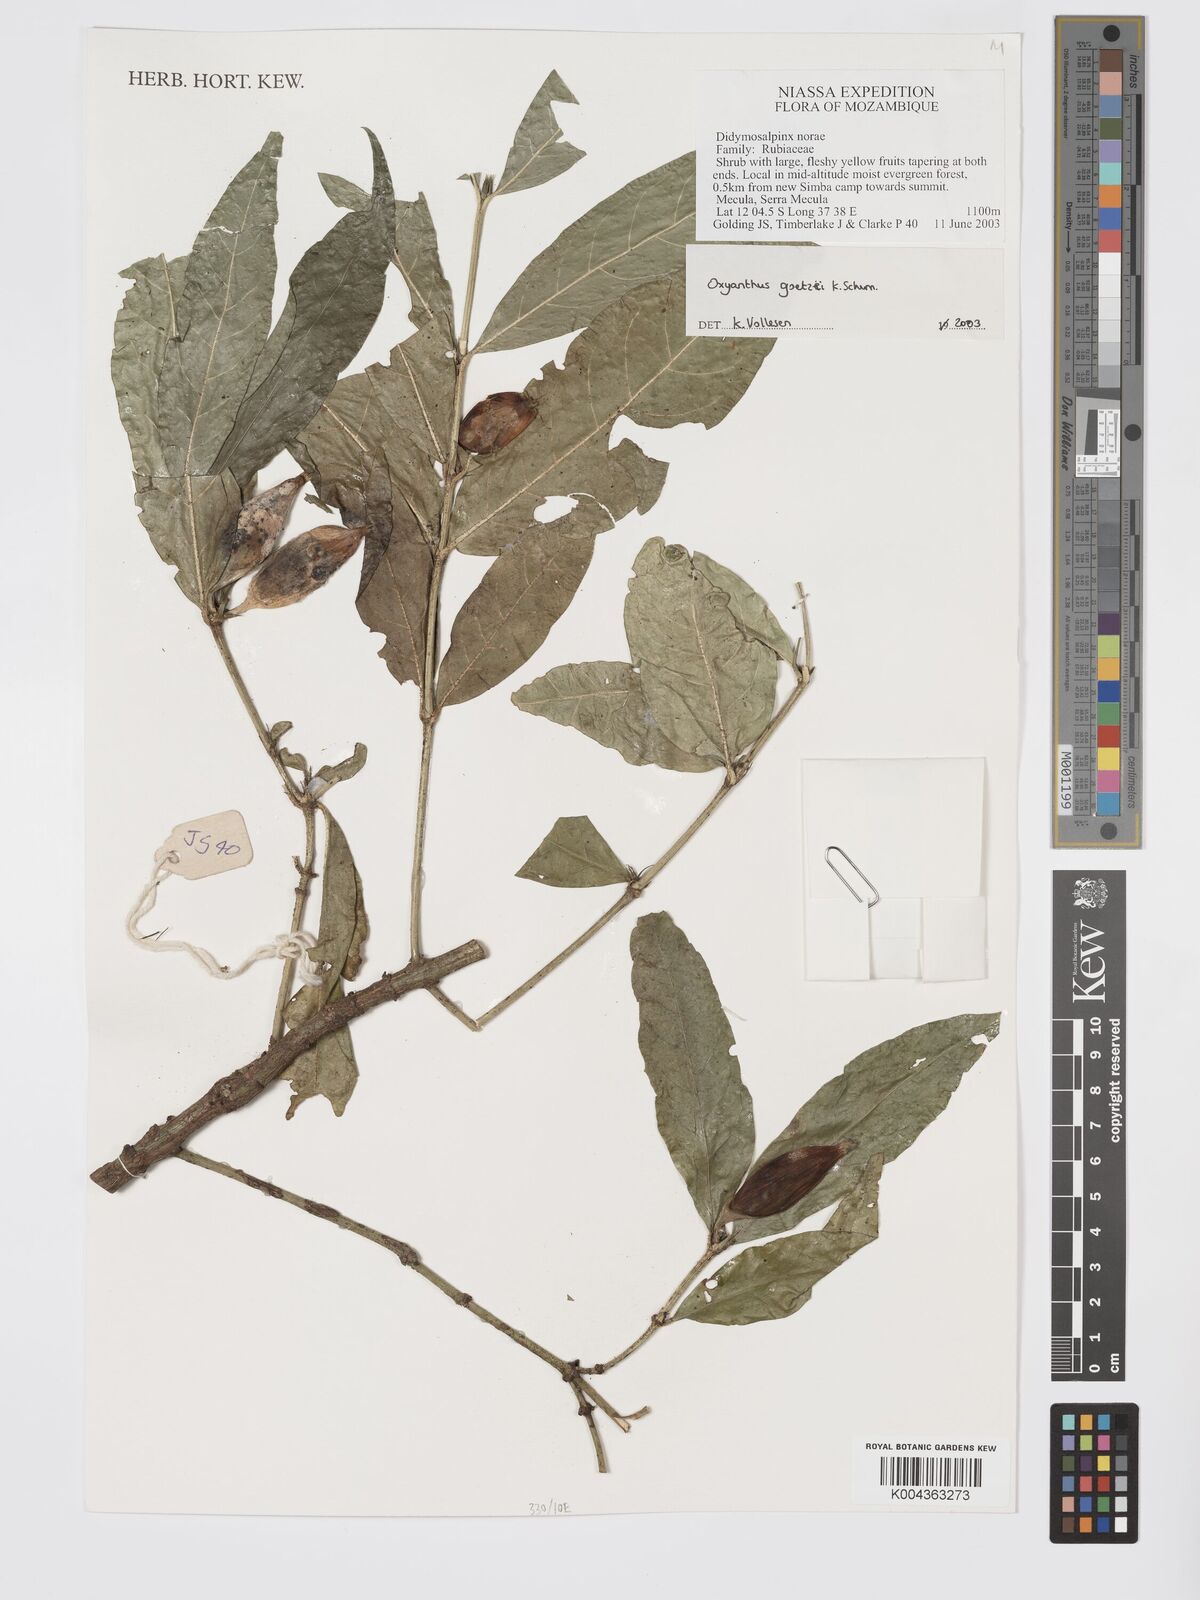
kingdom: Plantae
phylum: Tracheophyta
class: Magnoliopsida
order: Gentianales
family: Rubiaceae
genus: Oxyanthus
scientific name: Oxyanthus goetzei
